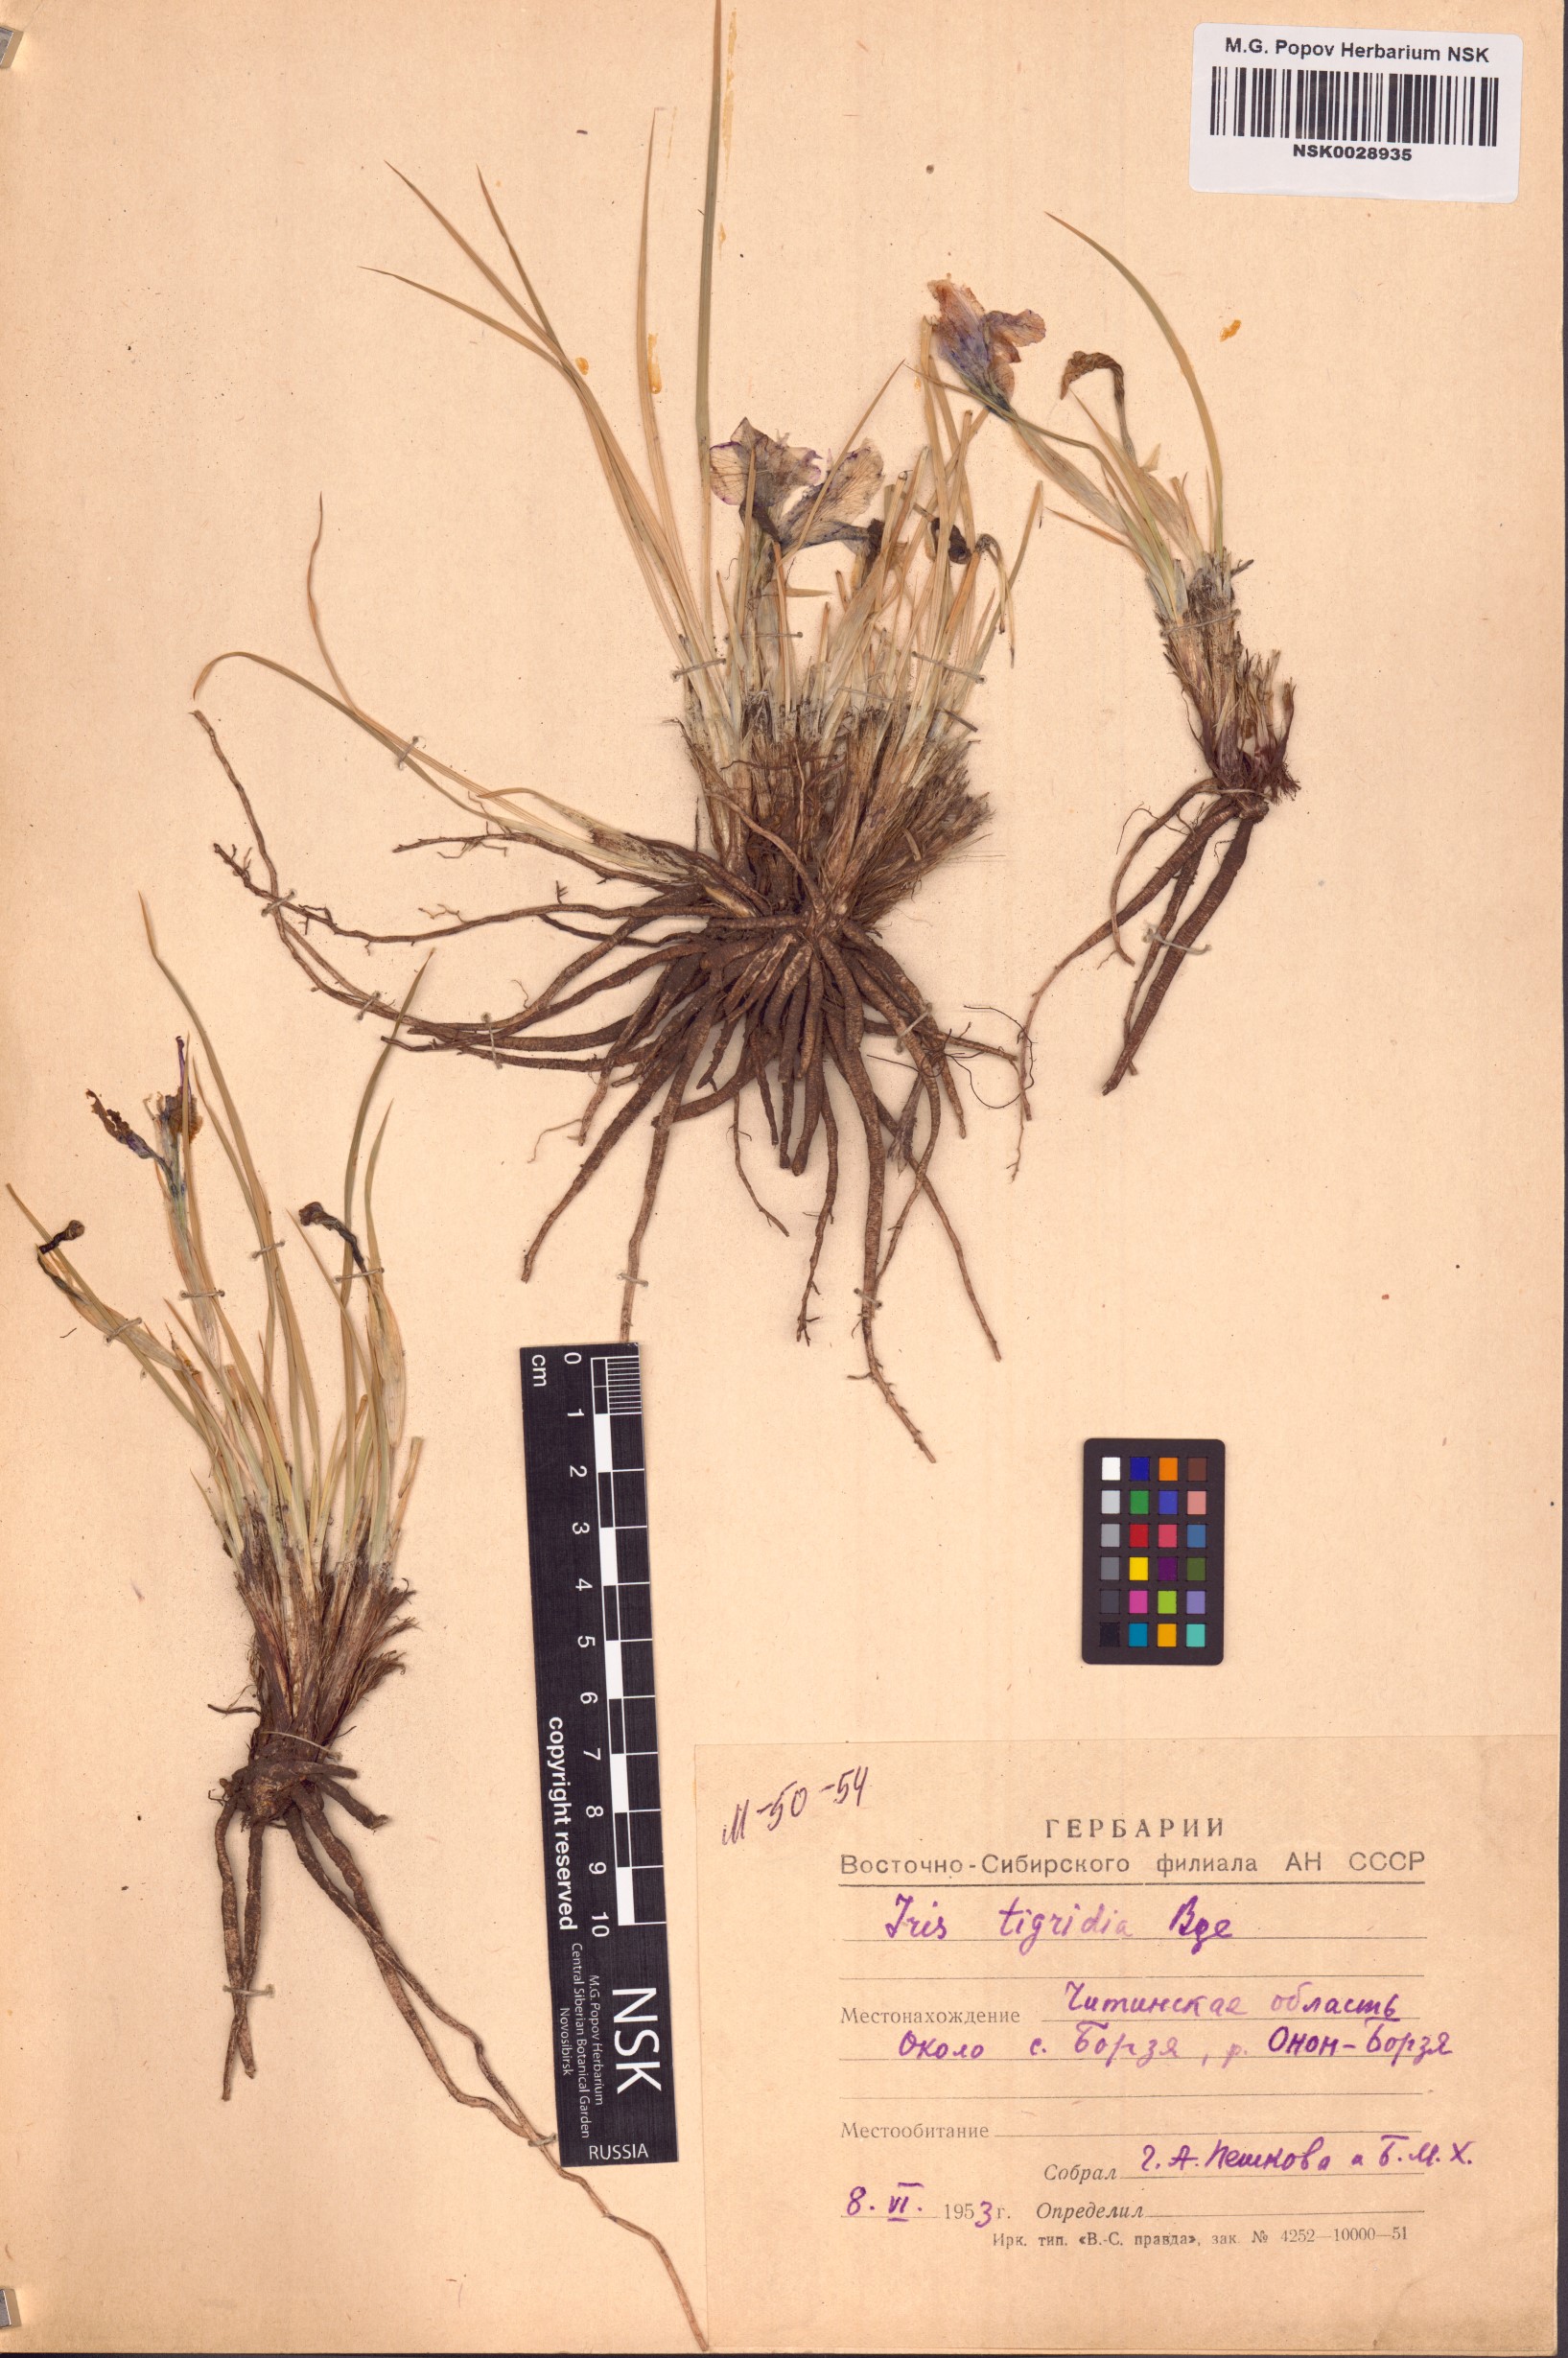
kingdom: Plantae
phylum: Tracheophyta
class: Liliopsida
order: Asparagales
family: Iridaceae
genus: Iris
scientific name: Iris tigridia
